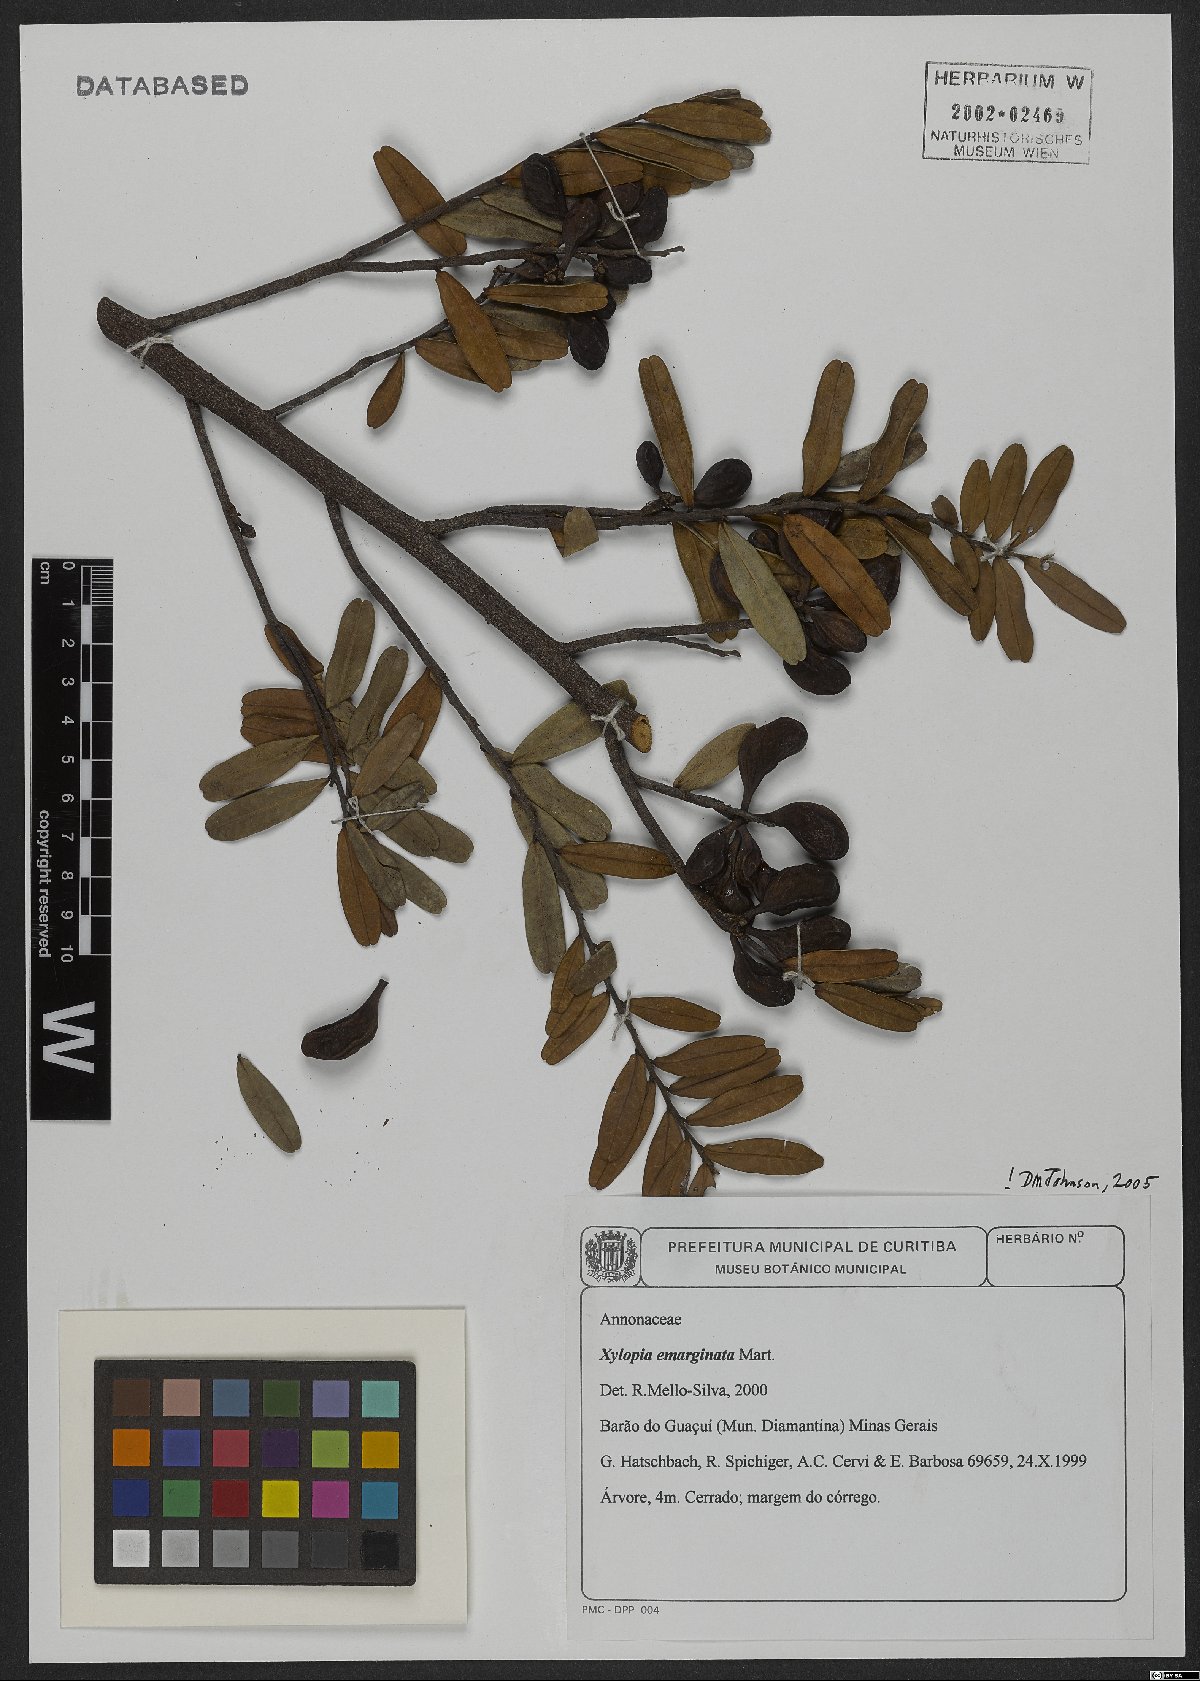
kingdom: Plantae
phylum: Tracheophyta
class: Magnoliopsida
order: Magnoliales
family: Annonaceae
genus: Xylopia
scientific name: Xylopia emarginata
